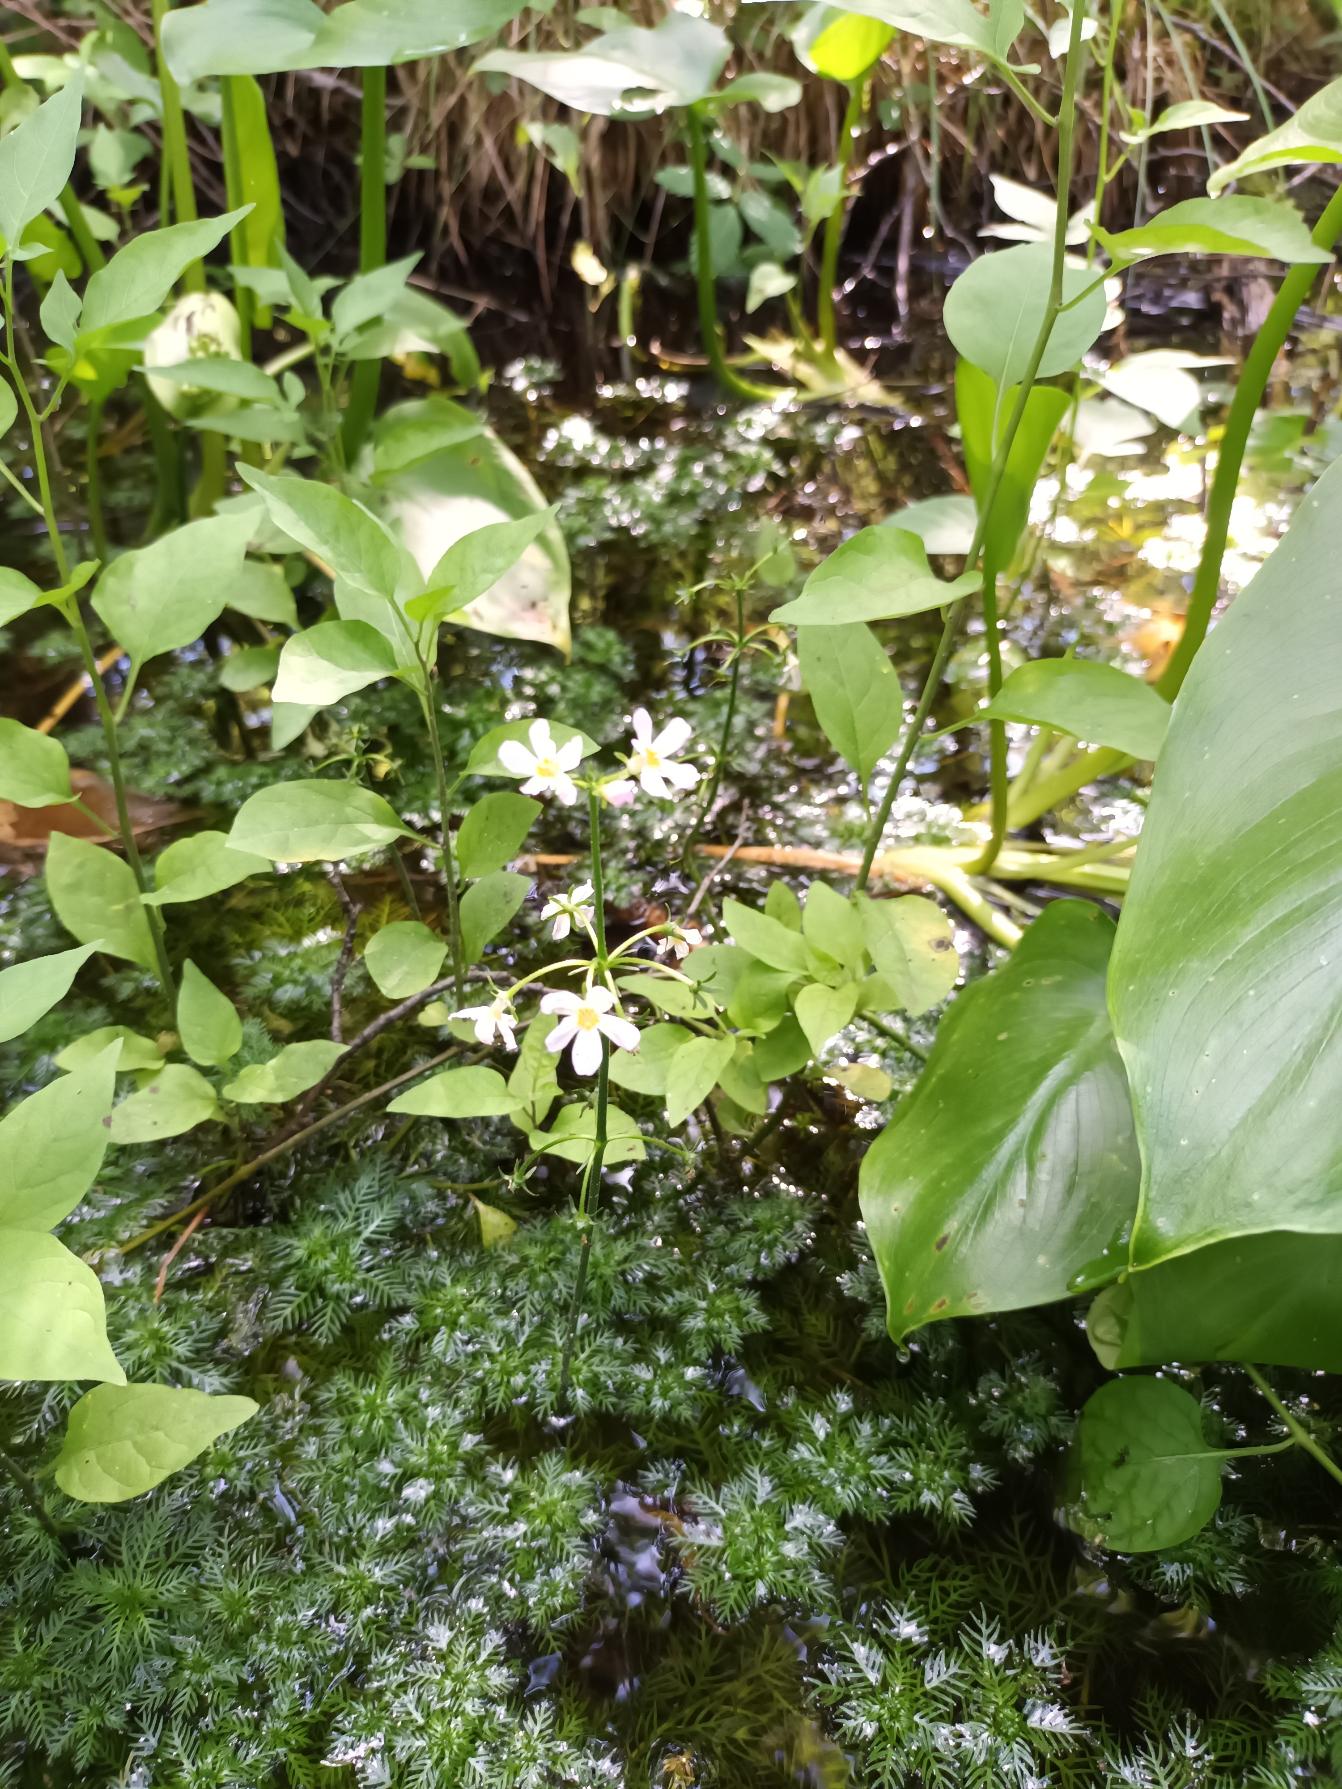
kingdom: Plantae
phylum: Tracheophyta
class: Magnoliopsida
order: Ericales
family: Primulaceae
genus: Hottonia
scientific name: Hottonia palustris
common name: Vandrøllike
